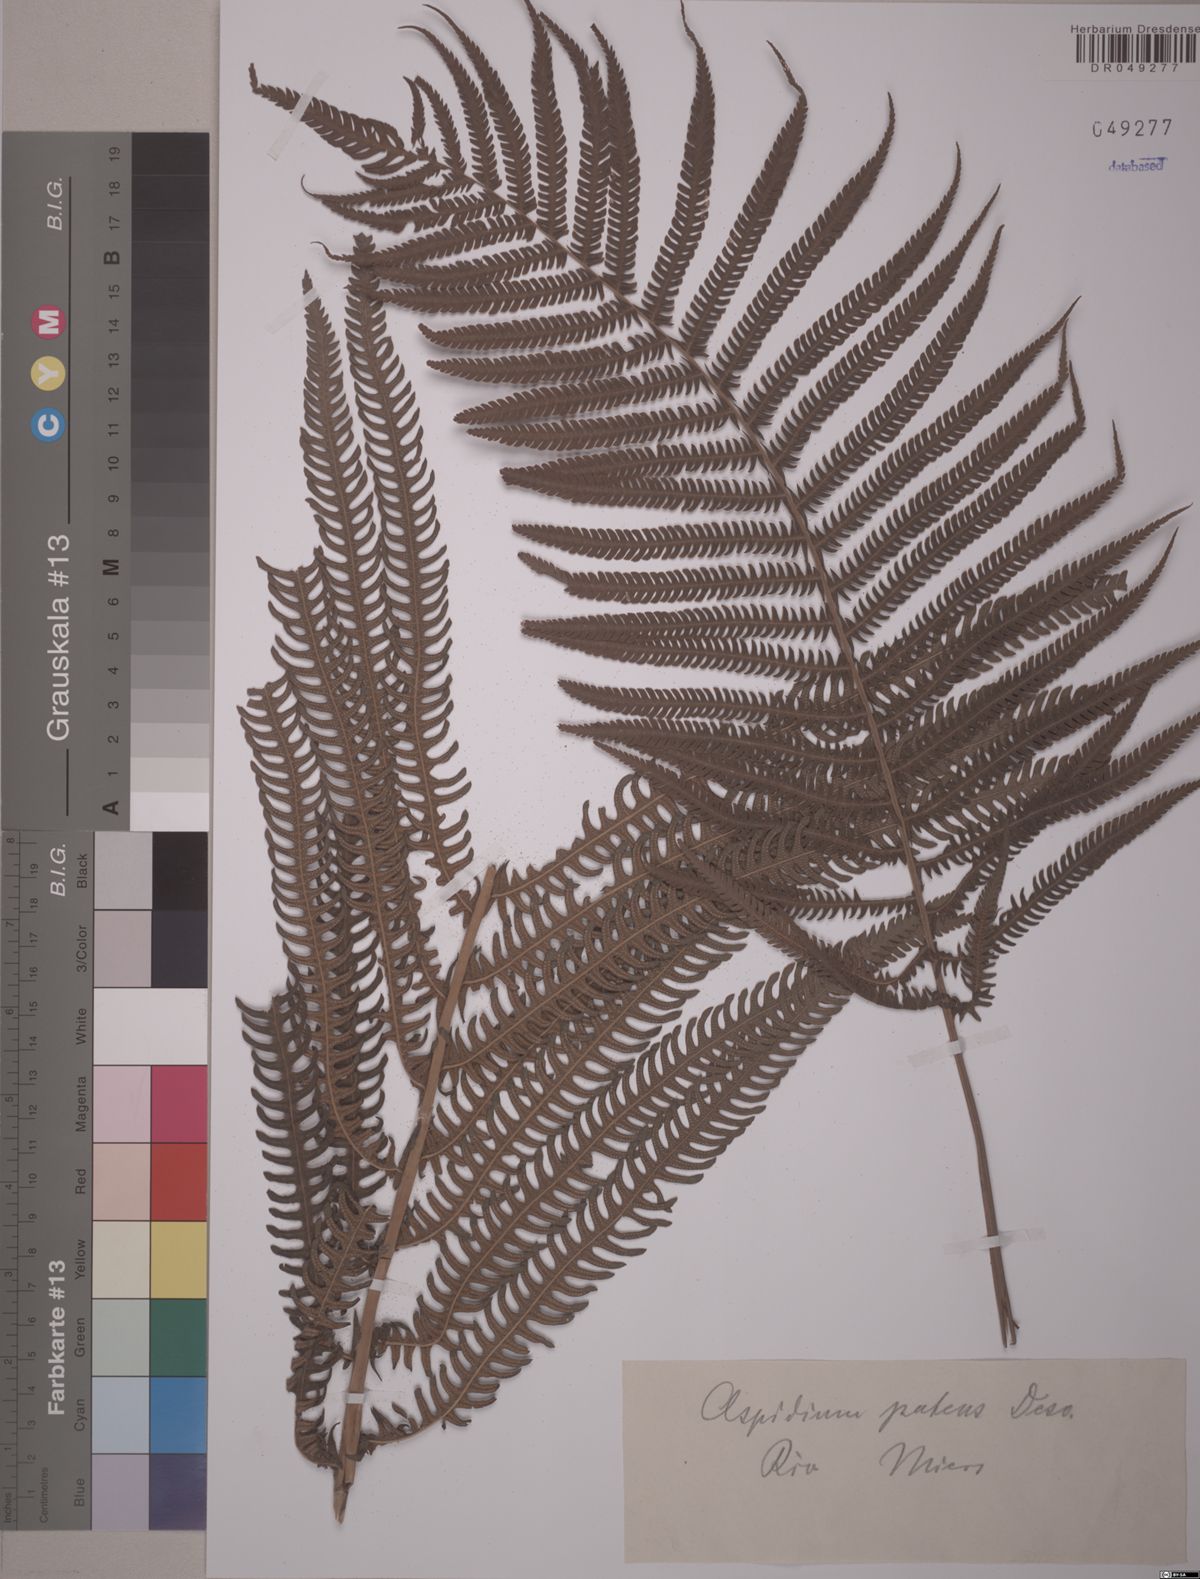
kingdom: Plantae
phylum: Tracheophyta
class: Polypodiopsida
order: Polypodiales
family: Thelypteridaceae
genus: Pelazoneuron
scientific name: Pelazoneuron patens
